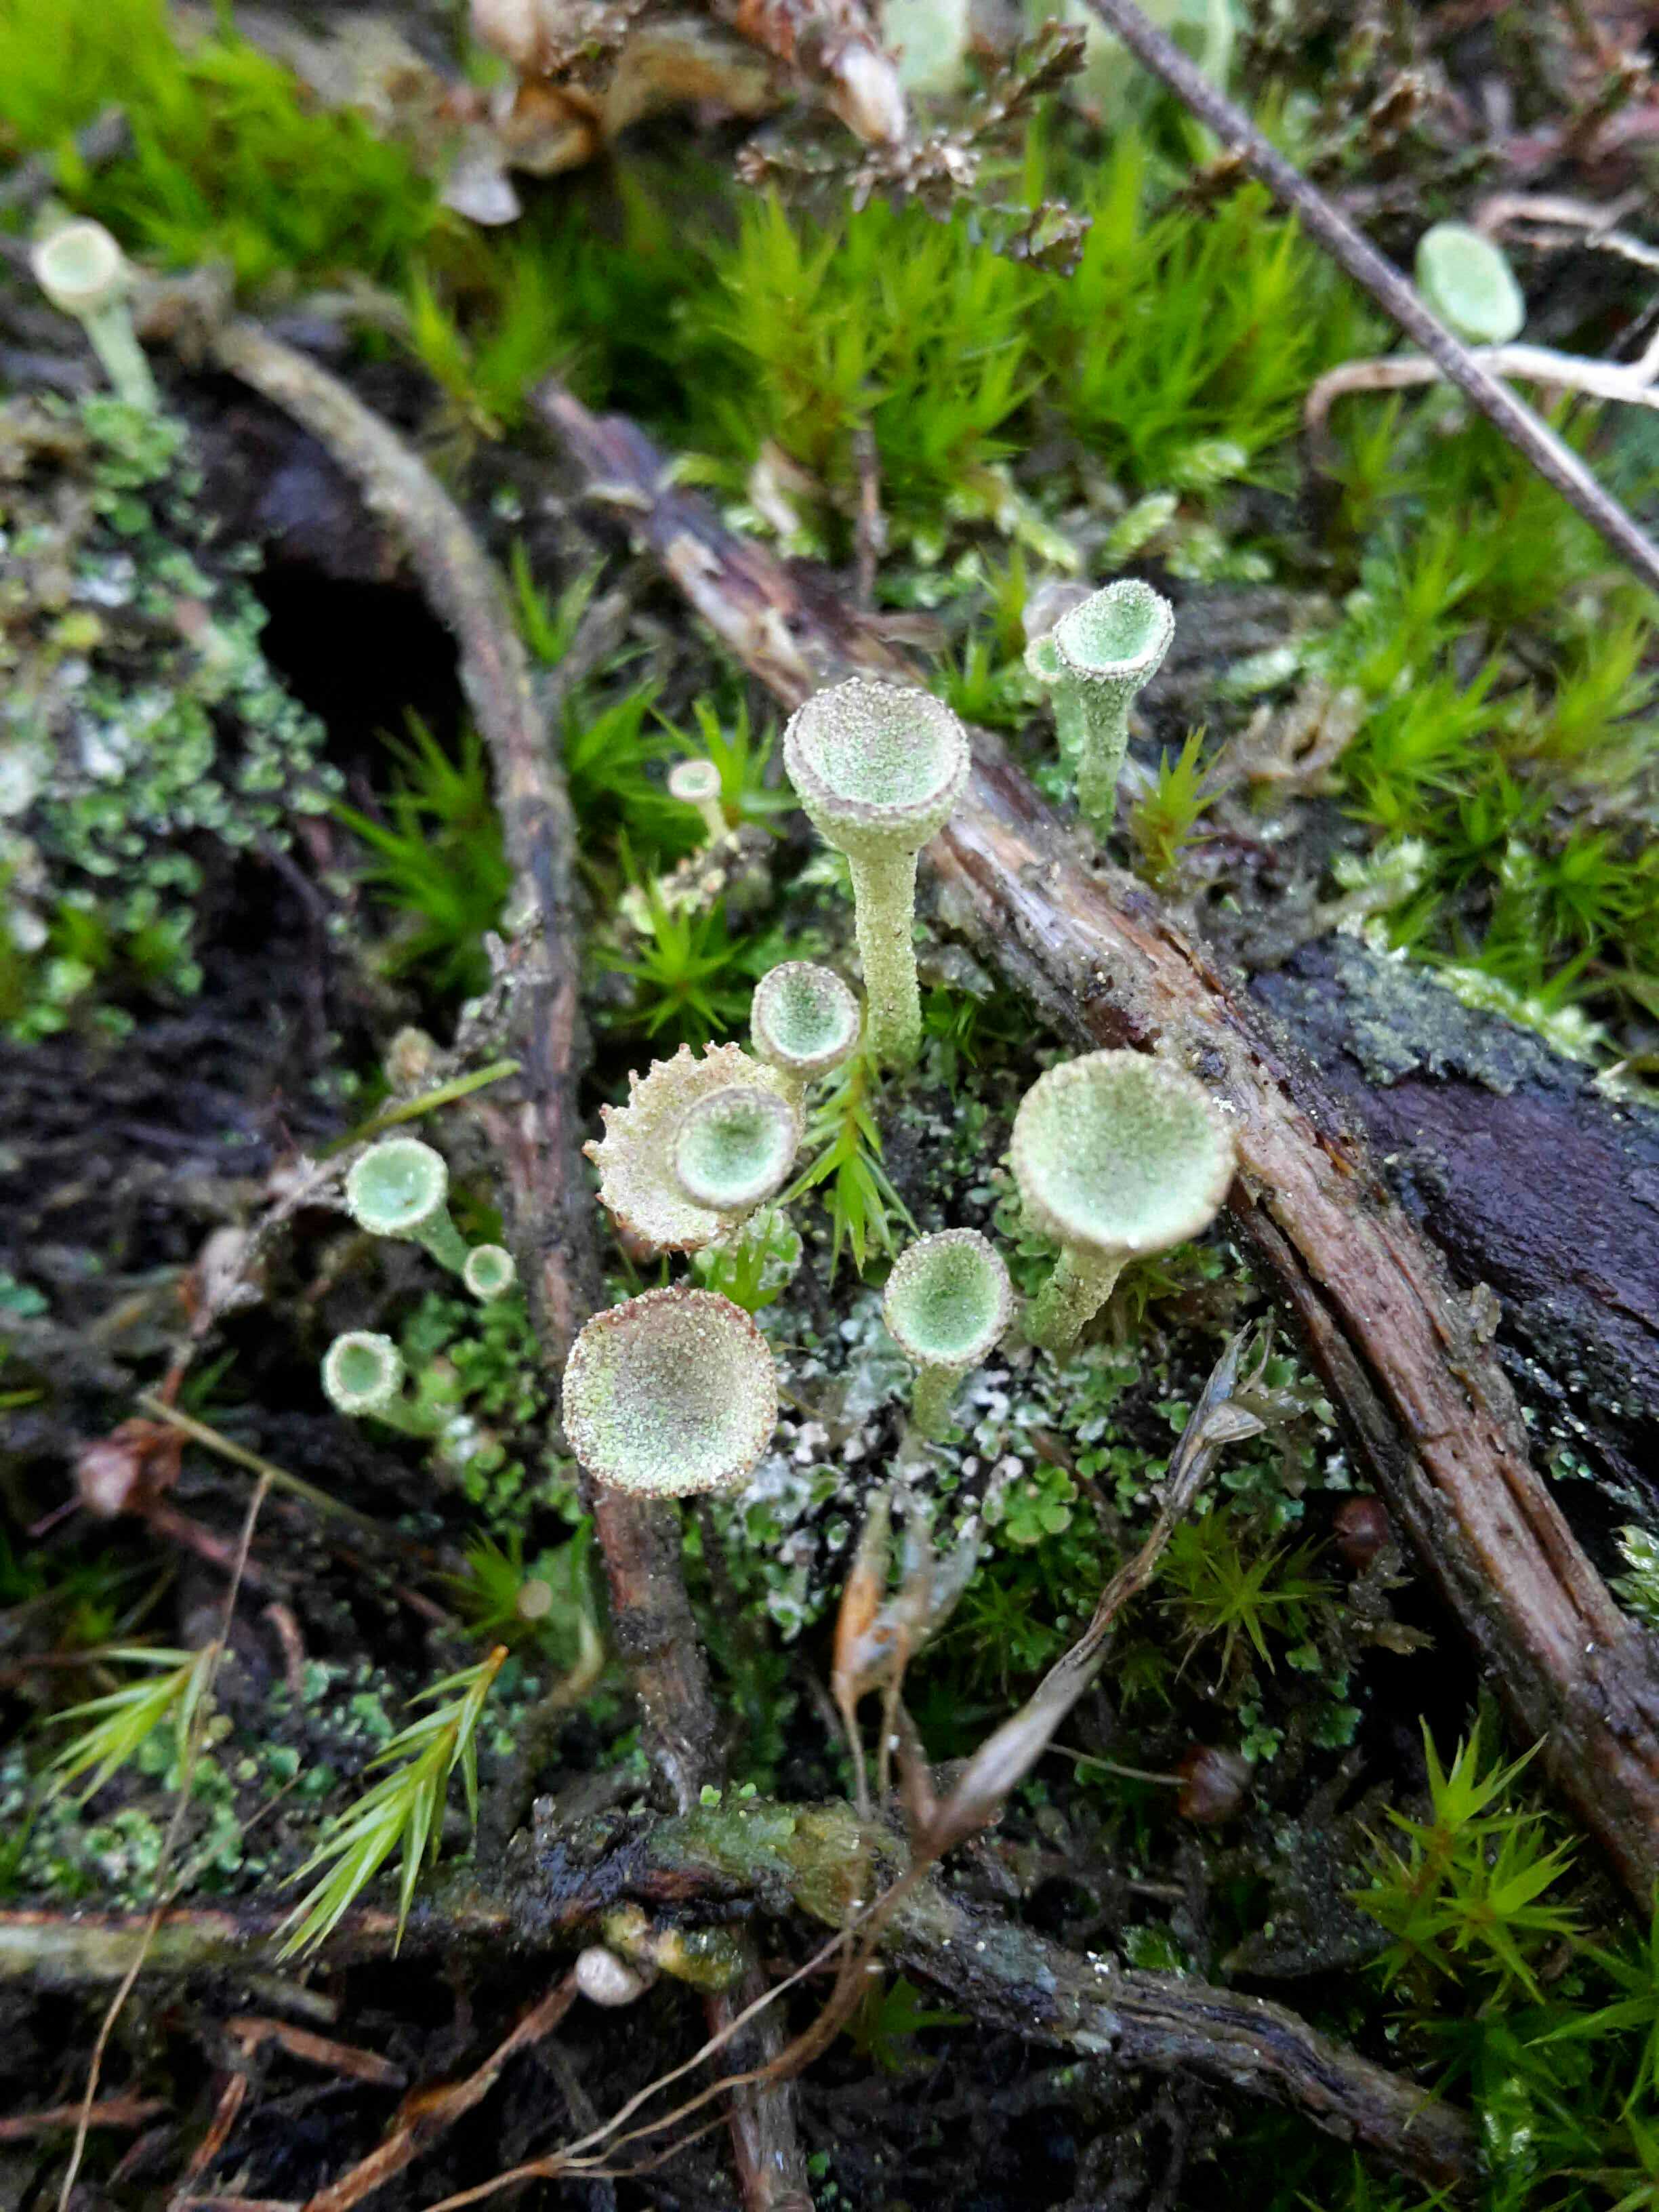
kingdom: Fungi
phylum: Ascomycota
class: Lecanoromycetes
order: Lecanorales
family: Cladoniaceae
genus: Cladonia
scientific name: Cladonia
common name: brungrøn bægerlav
